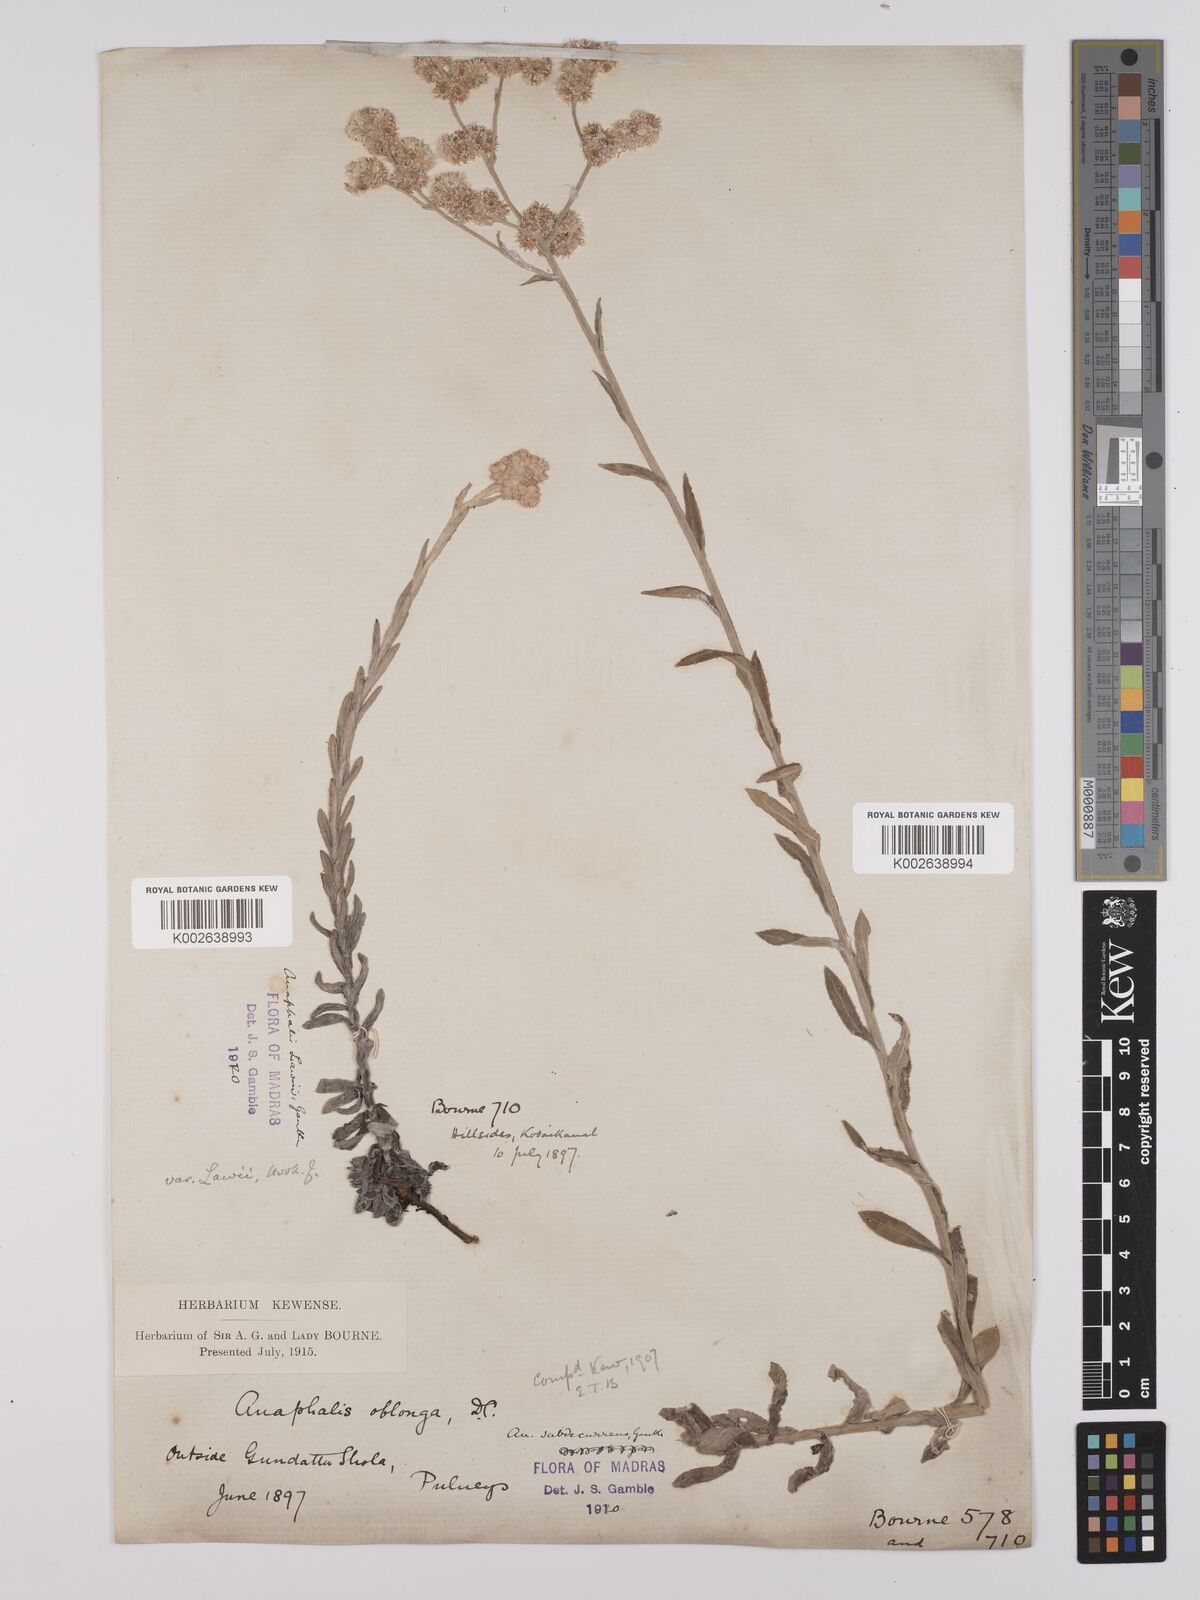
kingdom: Plantae
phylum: Tracheophyta
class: Magnoliopsida
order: Asterales
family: Asteraceae
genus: Anaphalis
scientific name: Anaphalis subdecurrens
